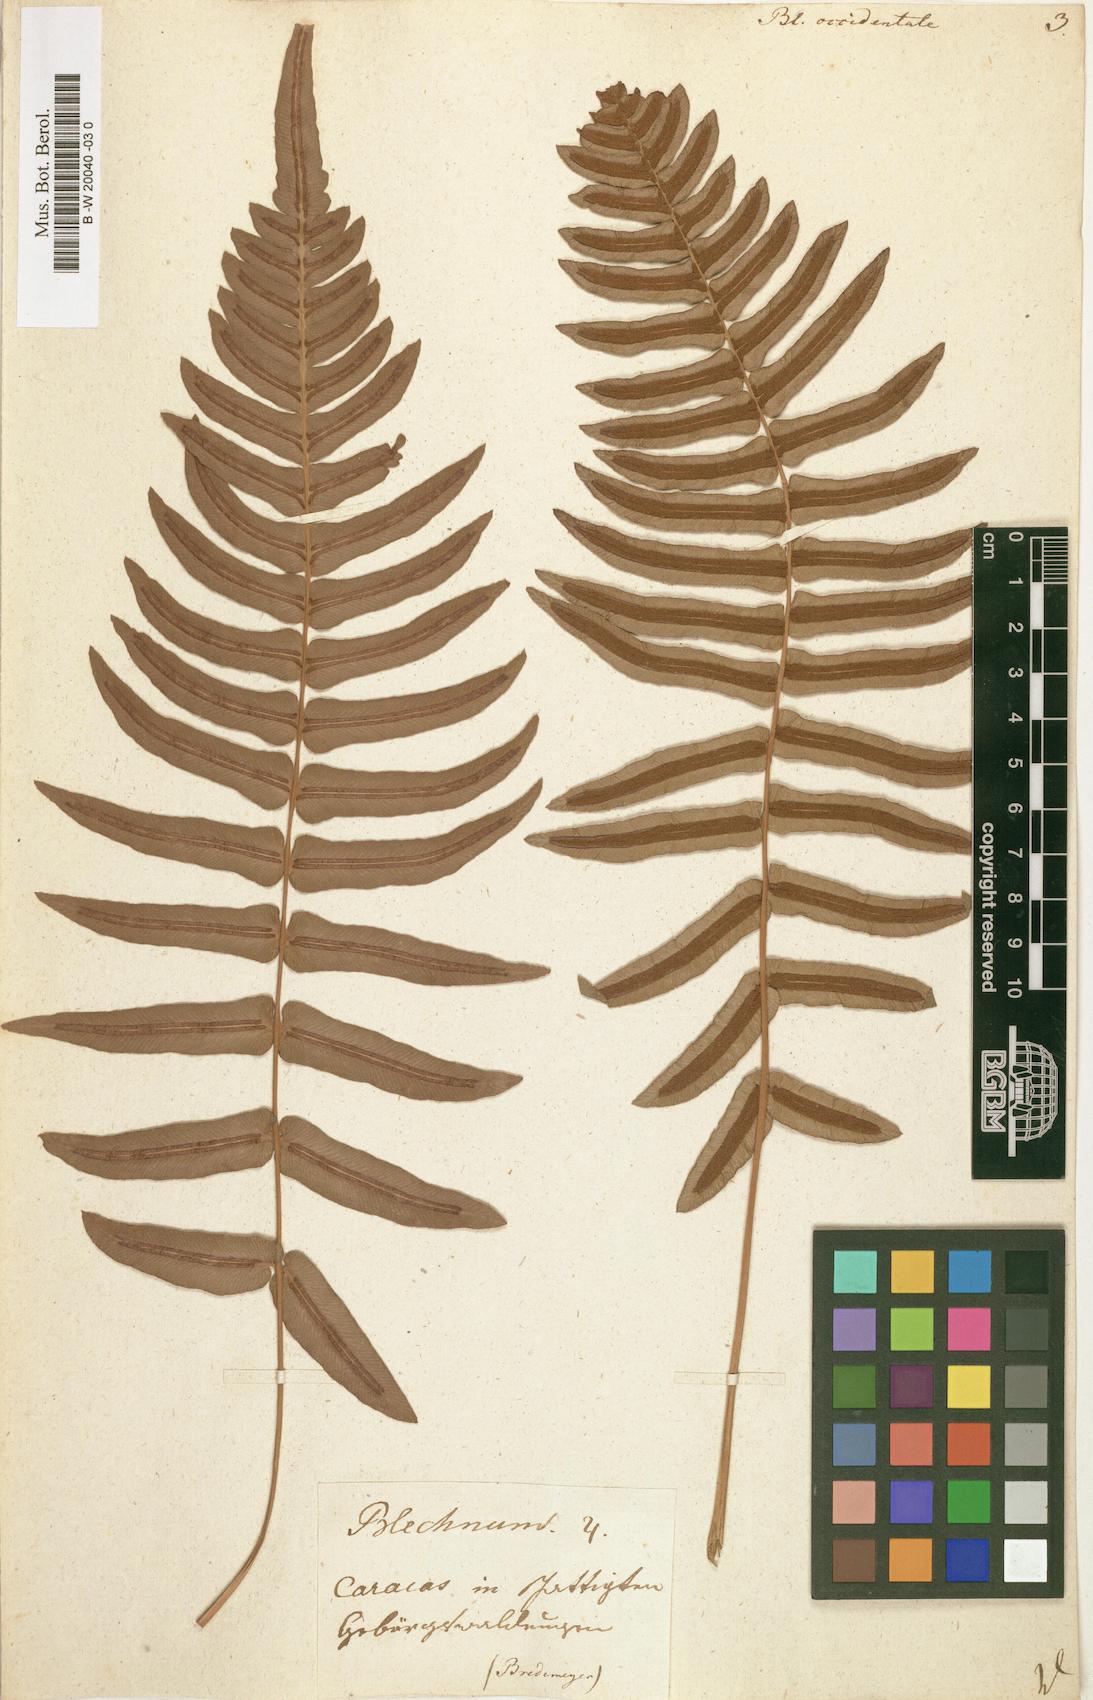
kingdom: Plantae
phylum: Tracheophyta
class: Polypodiopsida
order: Polypodiales
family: Blechnaceae
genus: Blechnum
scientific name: Blechnum occidentale
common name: Hammock fern
